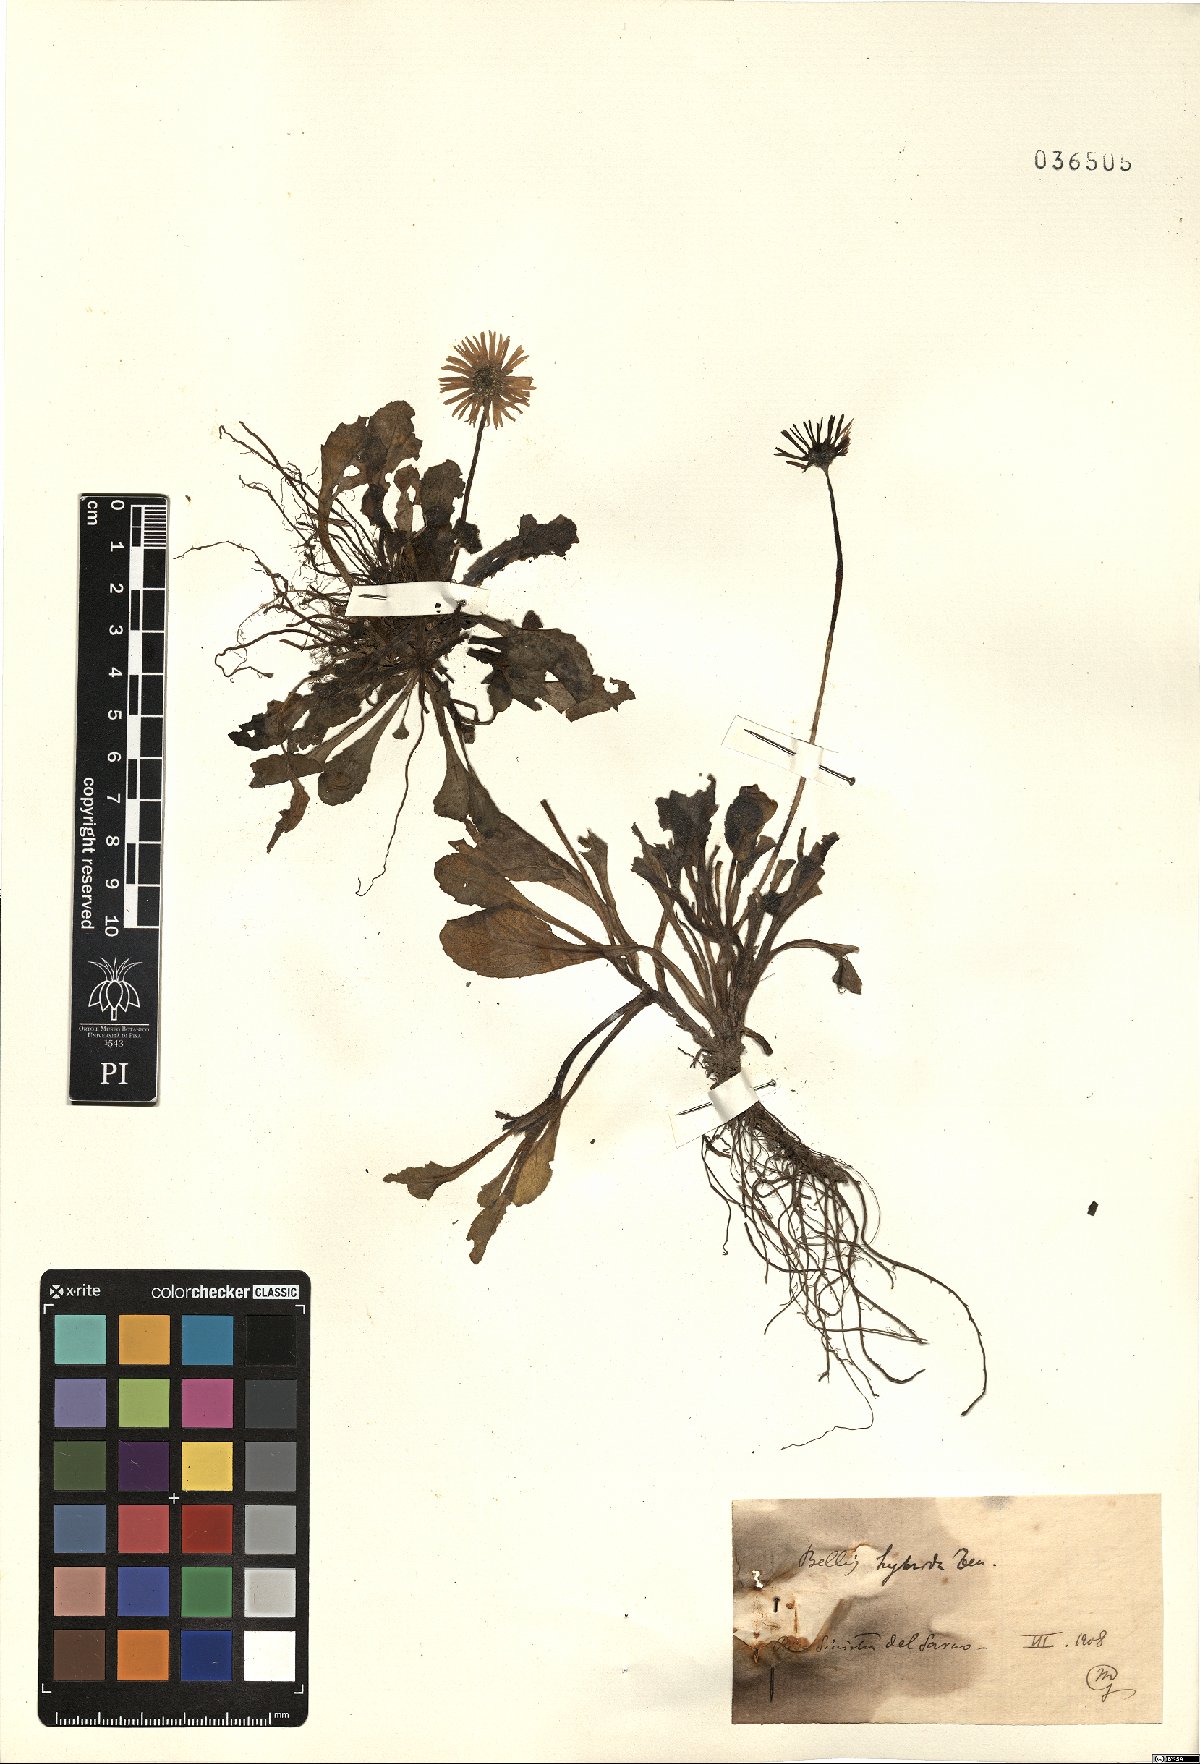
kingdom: Plantae
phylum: Tracheophyta
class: Magnoliopsida
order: Asterales
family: Asteraceae
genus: Bellis
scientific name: Bellis perennis
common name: Lawndaisy
